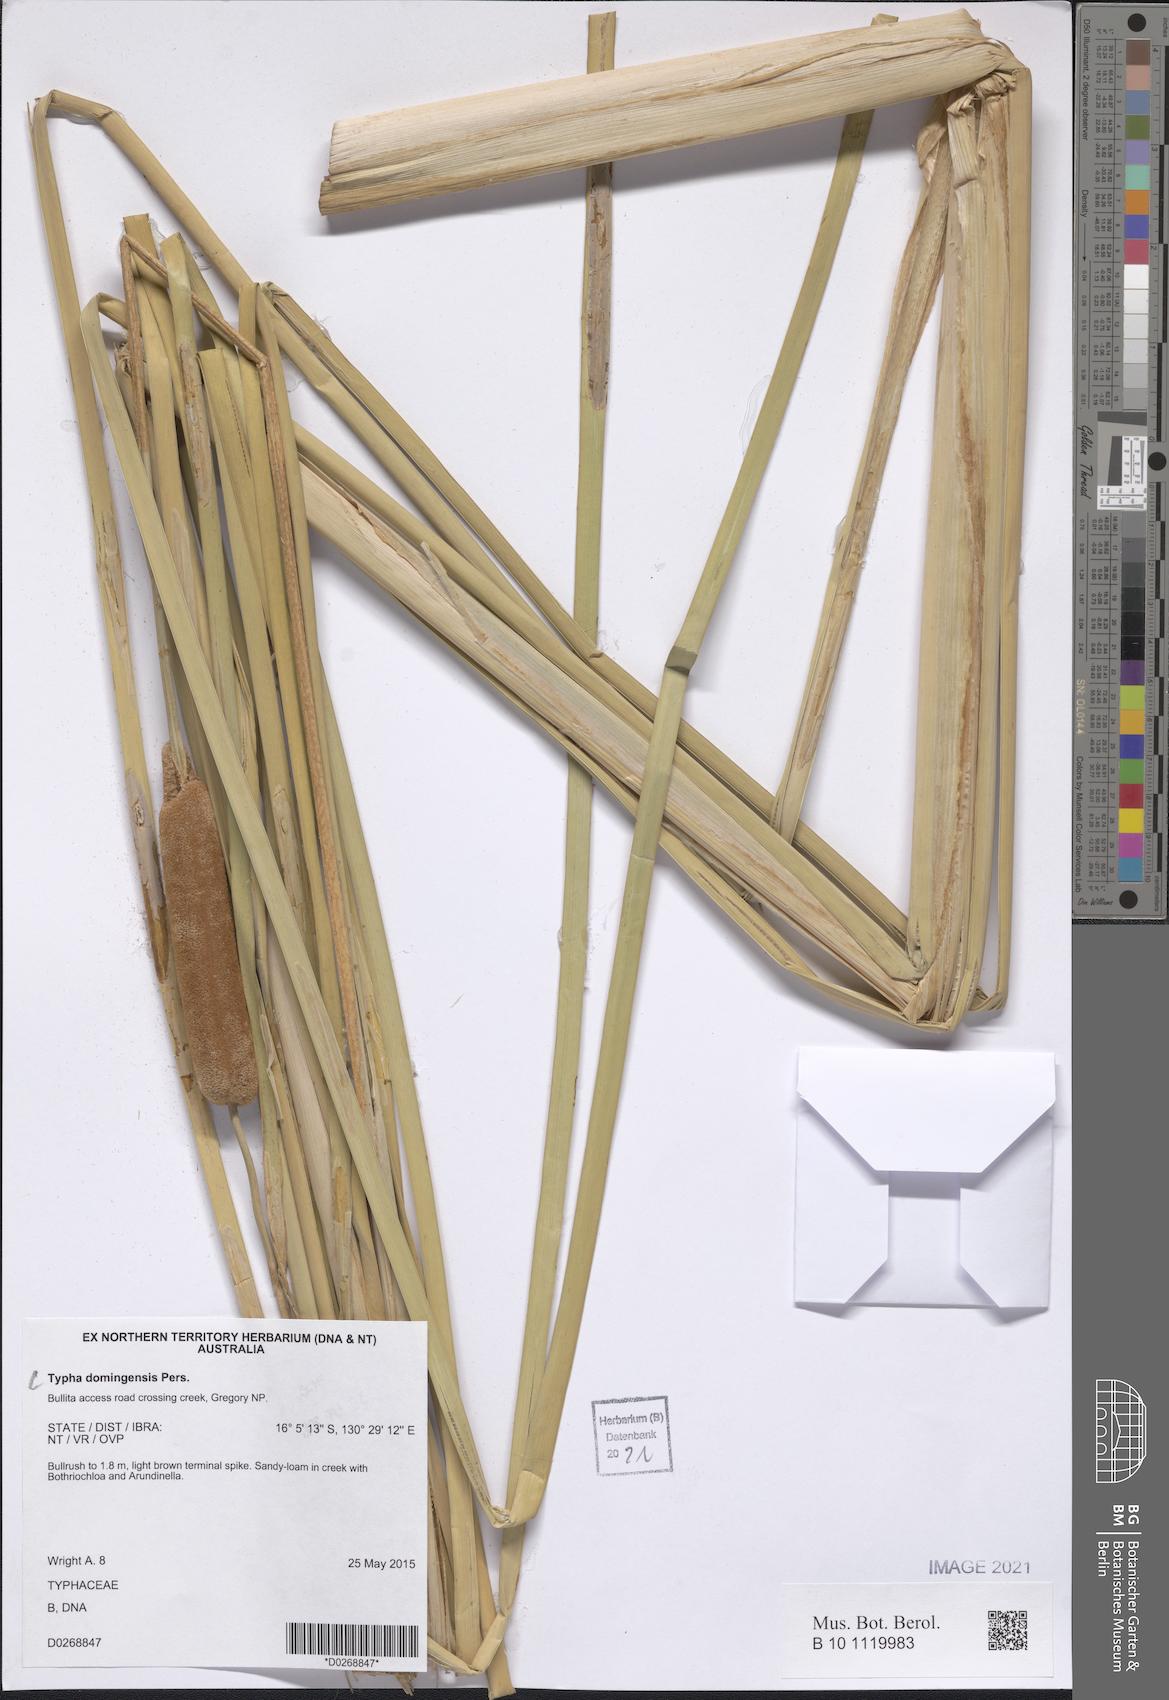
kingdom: Plantae
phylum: Tracheophyta
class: Liliopsida
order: Poales
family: Typhaceae
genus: Typha
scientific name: Typha domingensis
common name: Southern cattail
